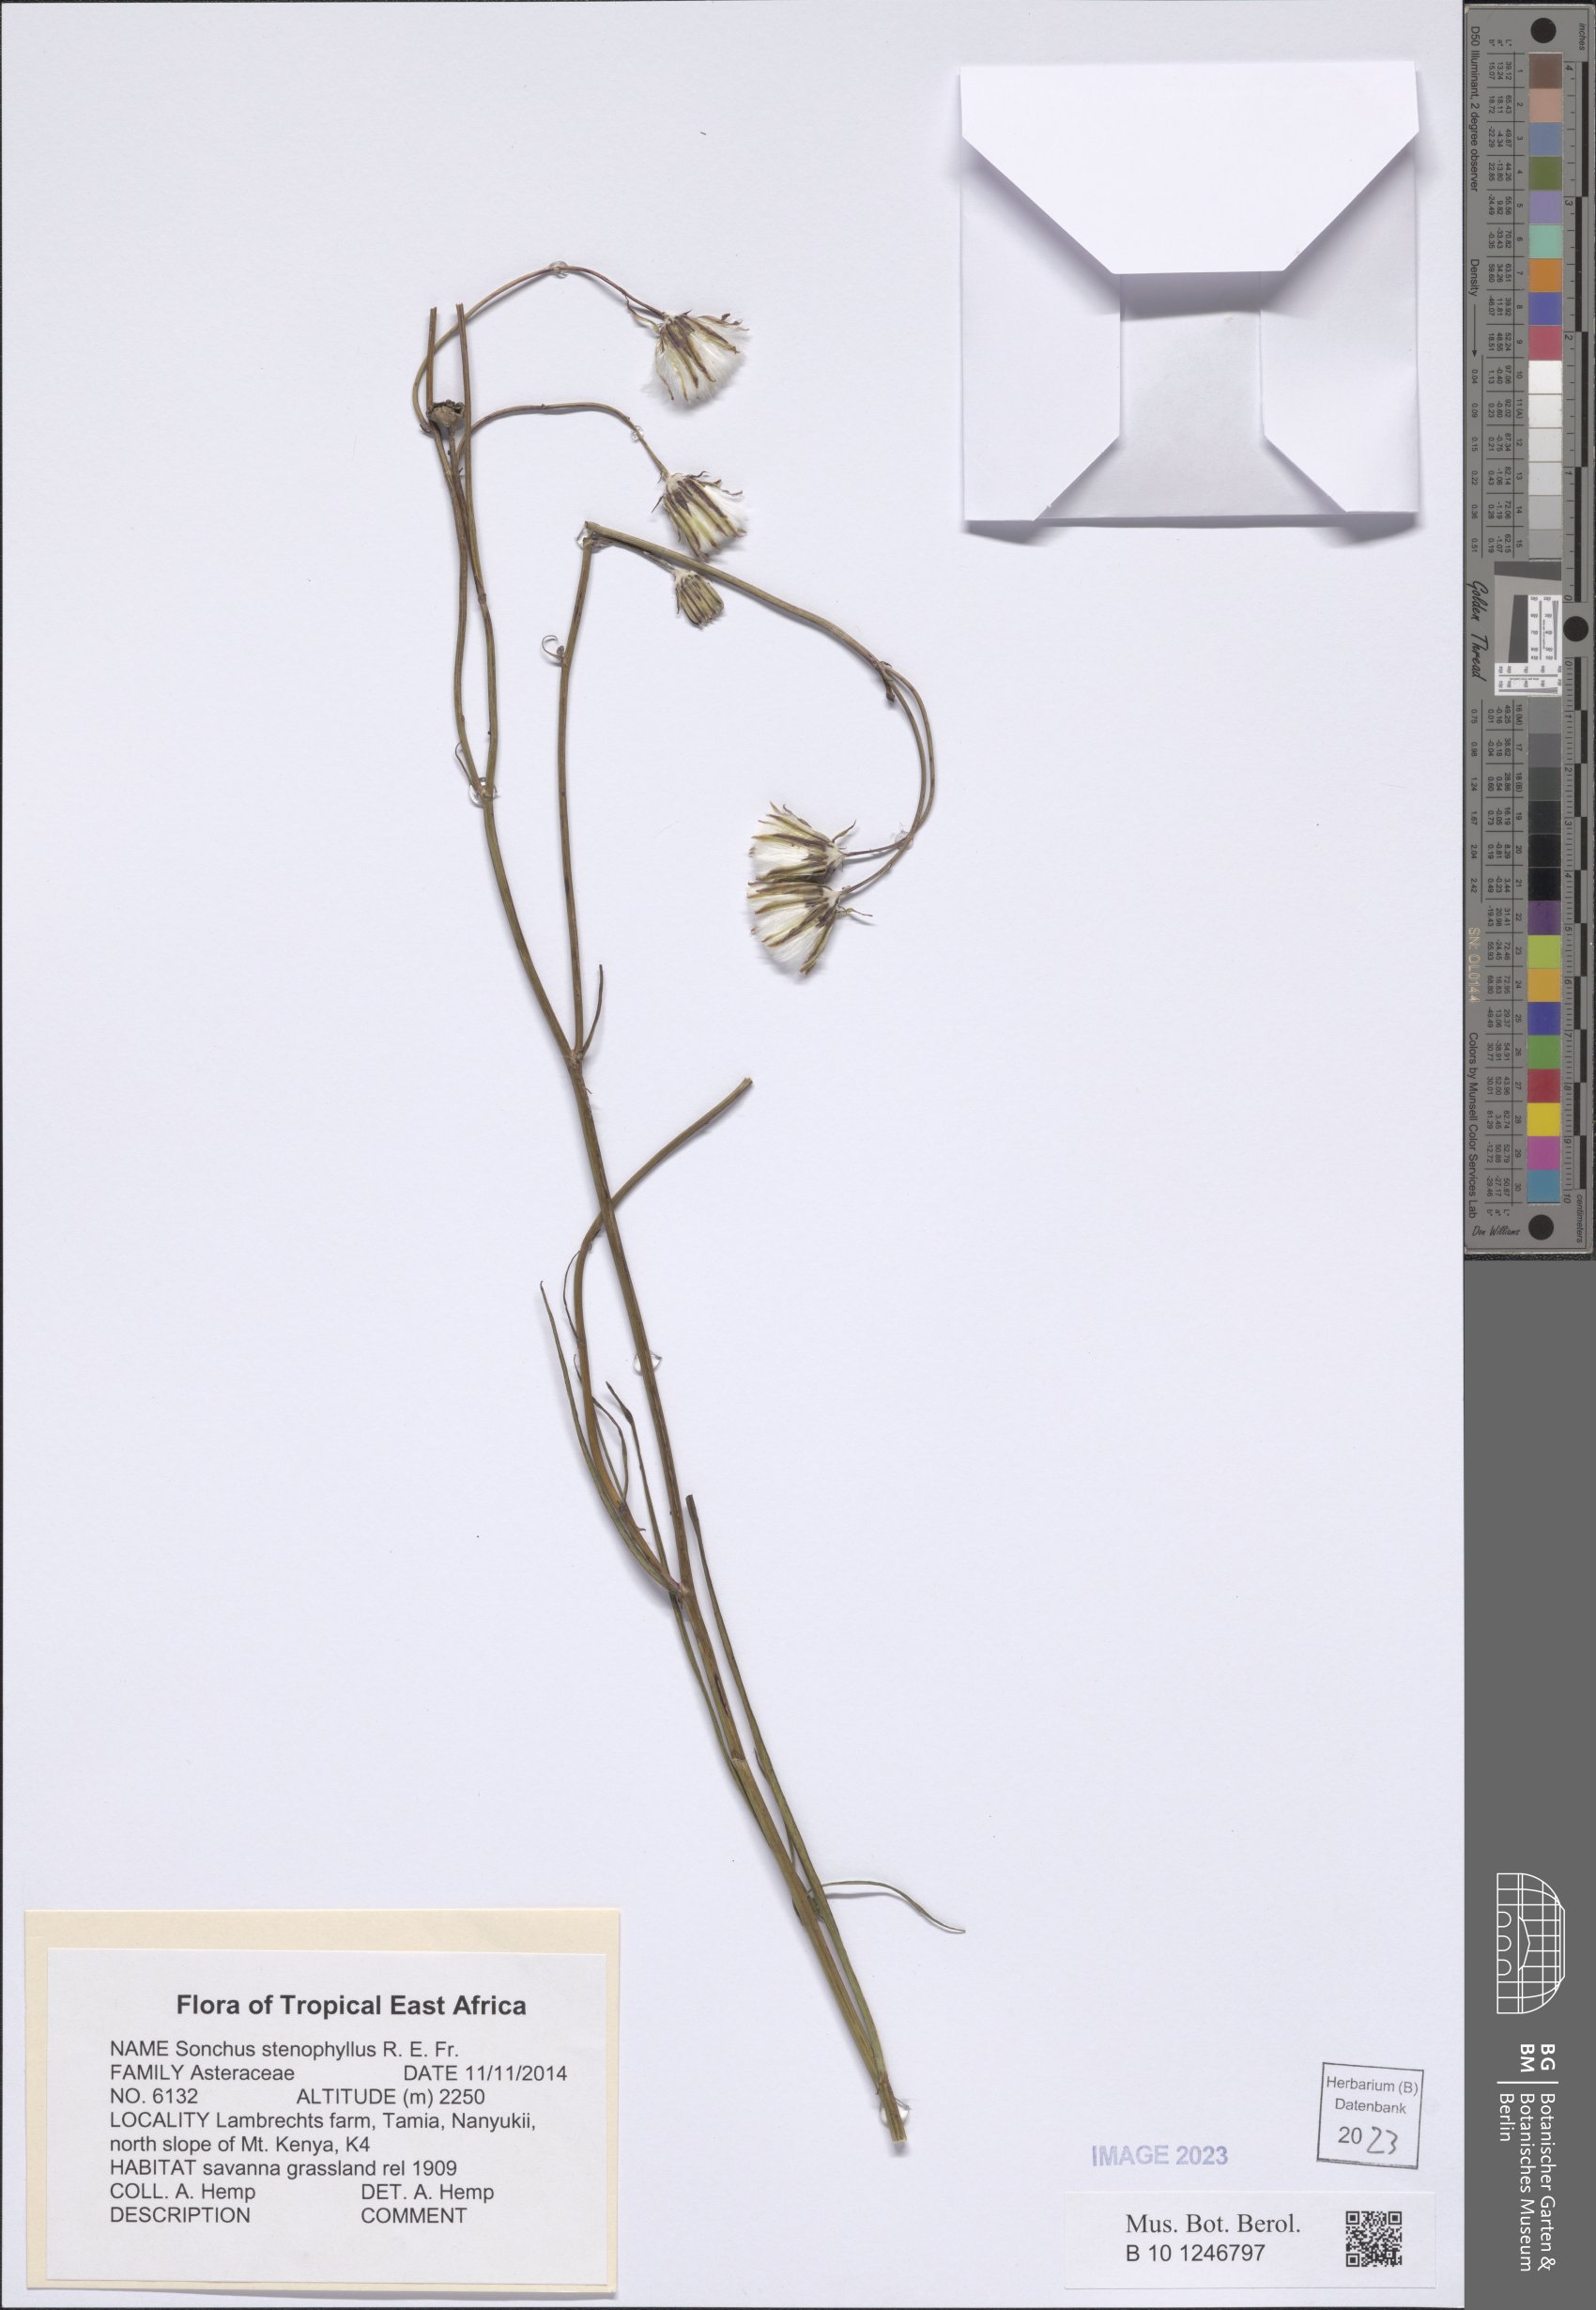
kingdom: Plantae
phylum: Tracheophyta
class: Magnoliopsida
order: Asterales
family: Asteraceae
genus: Sonchus
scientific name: Sonchus stenophyllus
